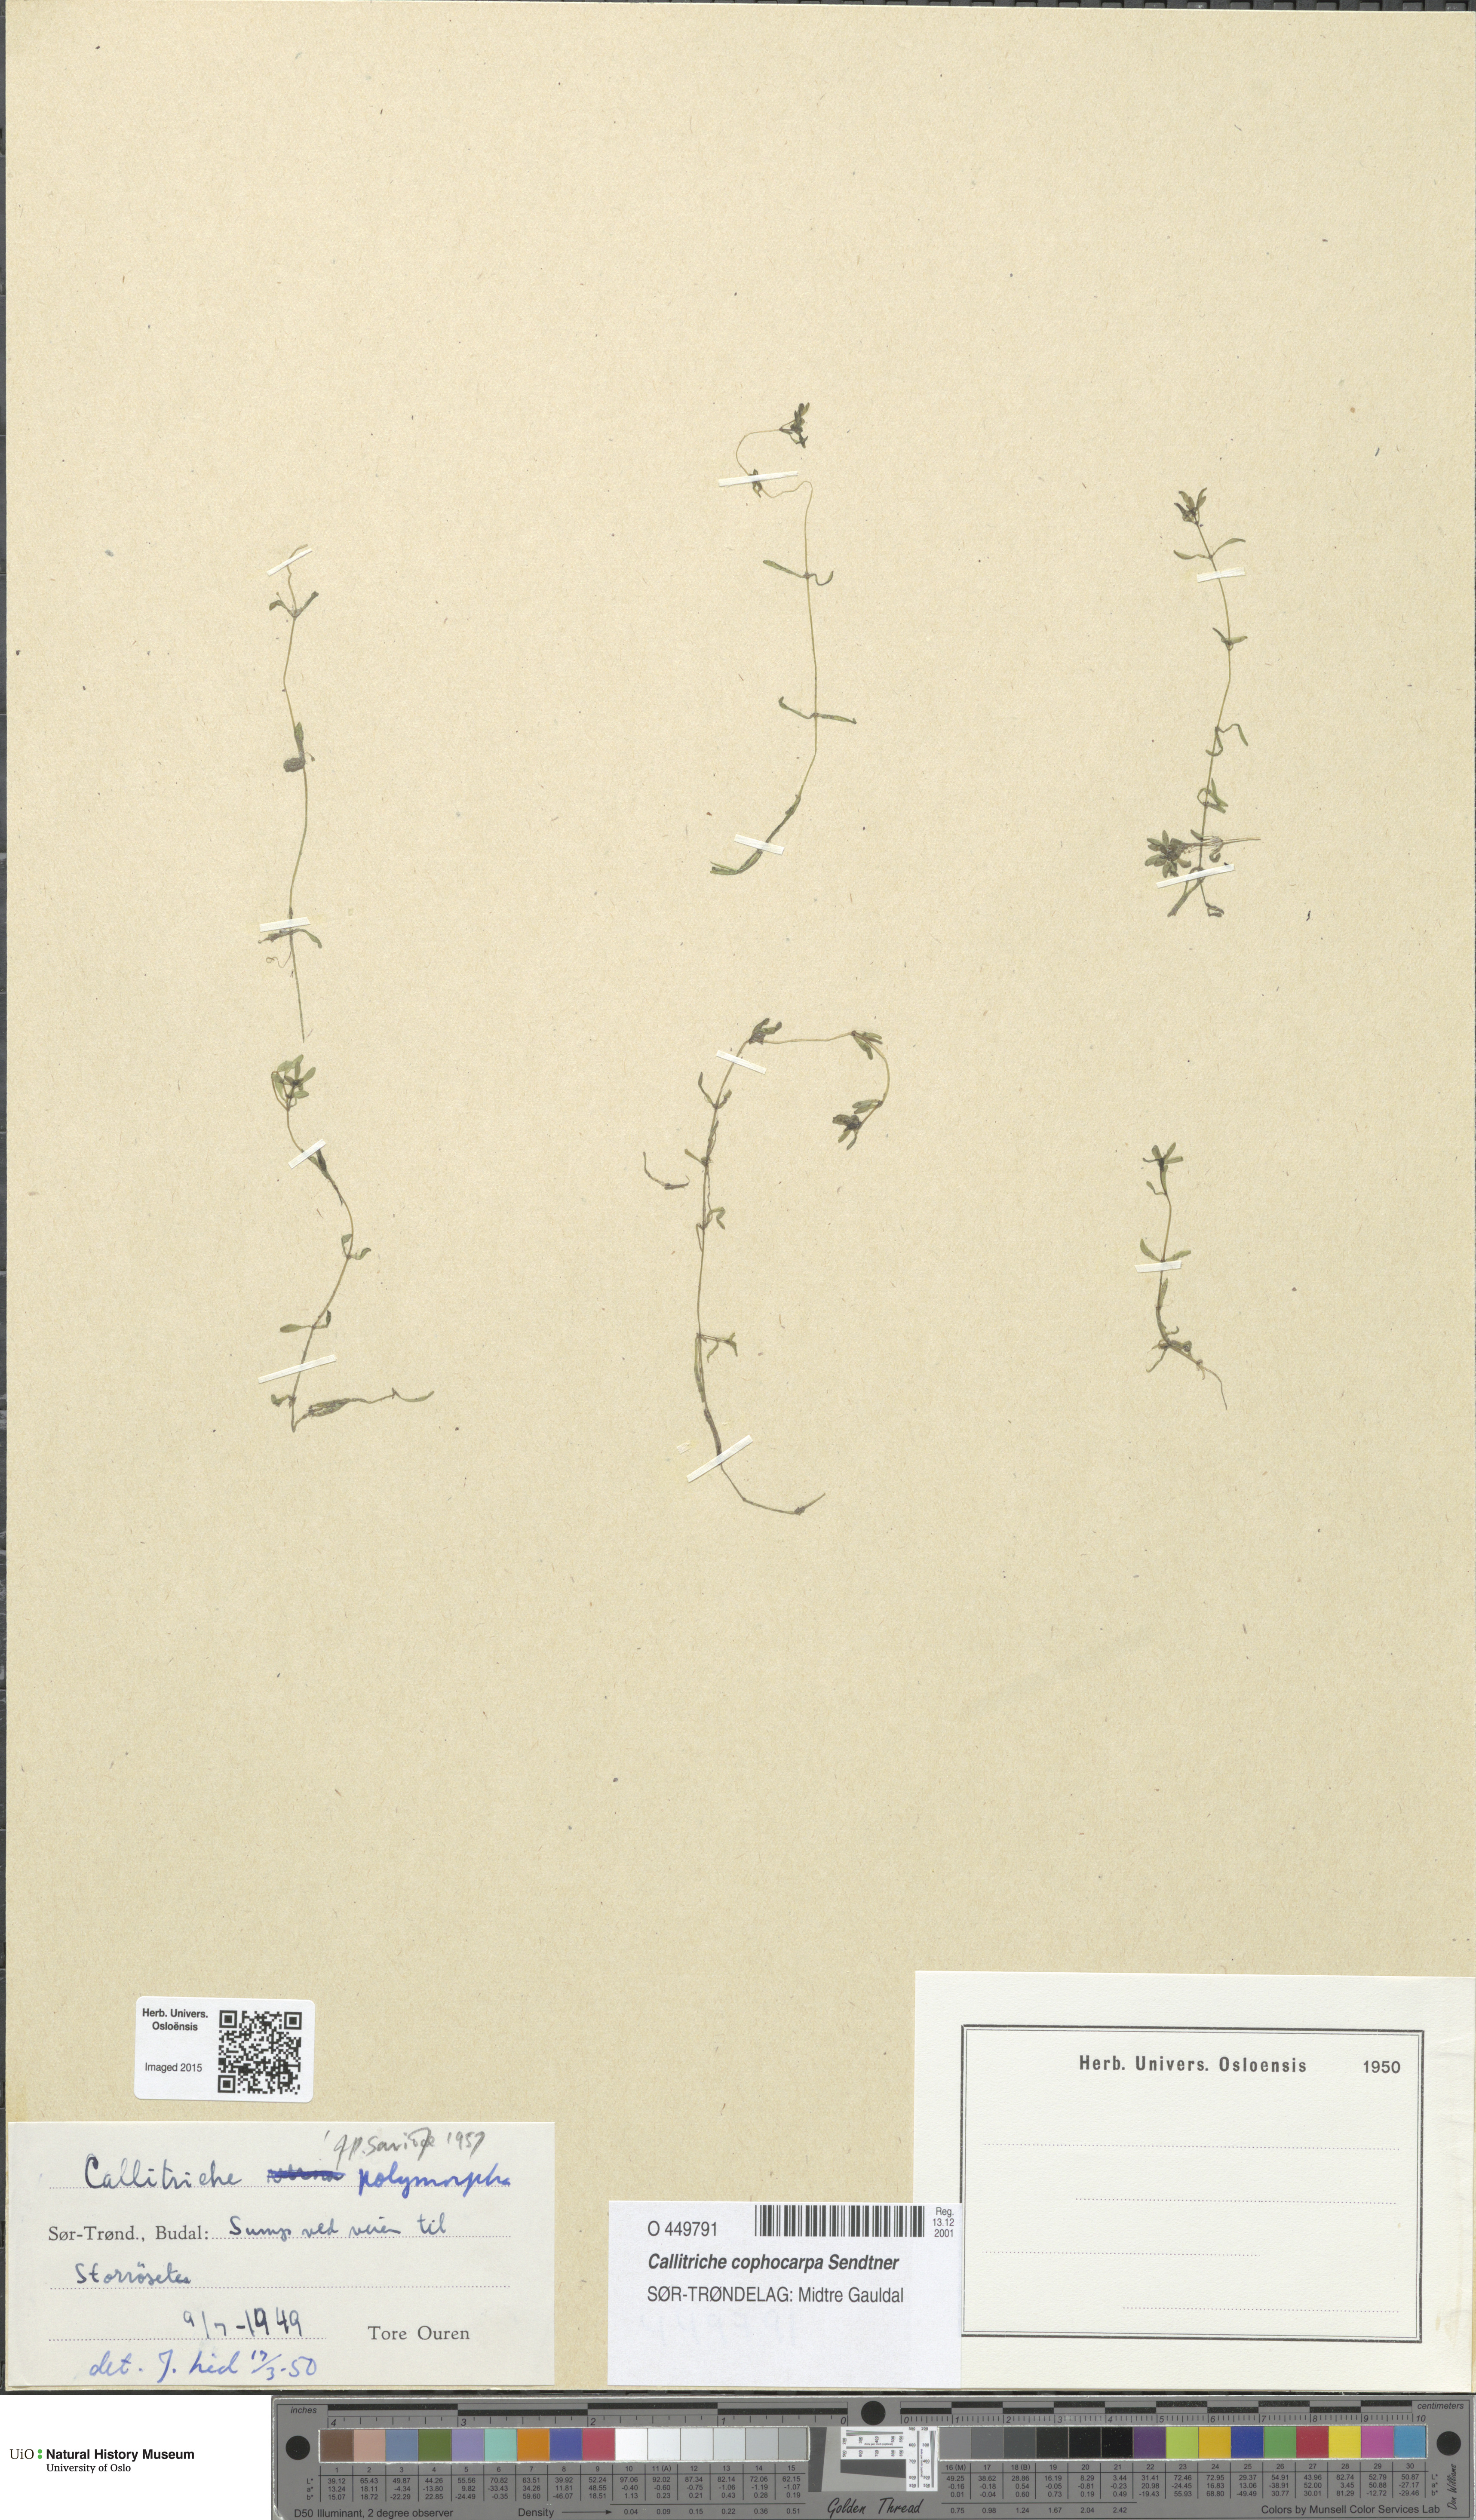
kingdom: Plantae
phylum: Tracheophyta
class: Magnoliopsida
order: Lamiales
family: Plantaginaceae
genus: Callitriche
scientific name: Callitriche cophocarpa
